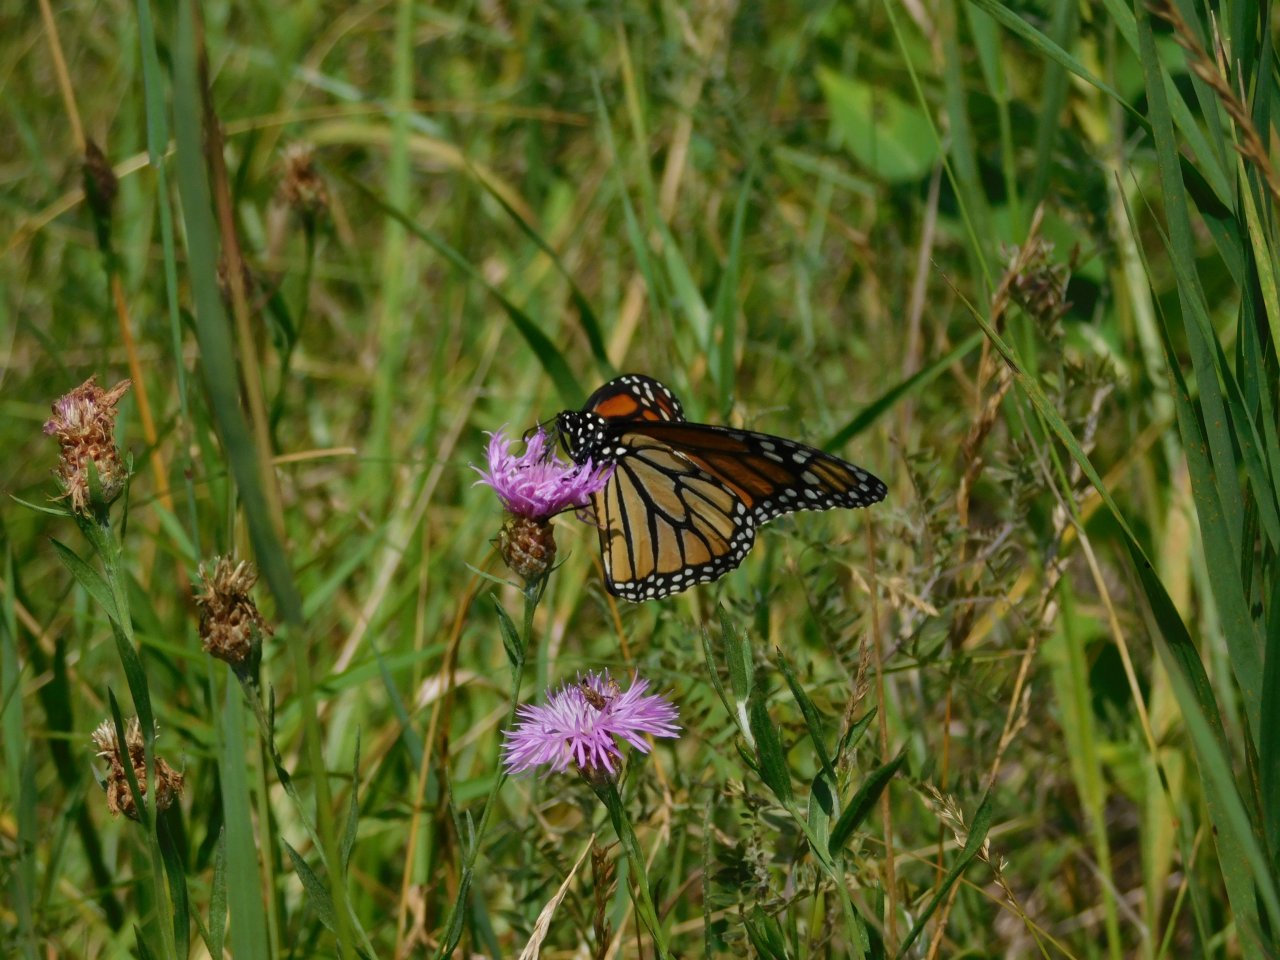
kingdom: Animalia
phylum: Arthropoda
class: Insecta
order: Lepidoptera
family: Nymphalidae
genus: Danaus
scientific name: Danaus plexippus
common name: Monarch
